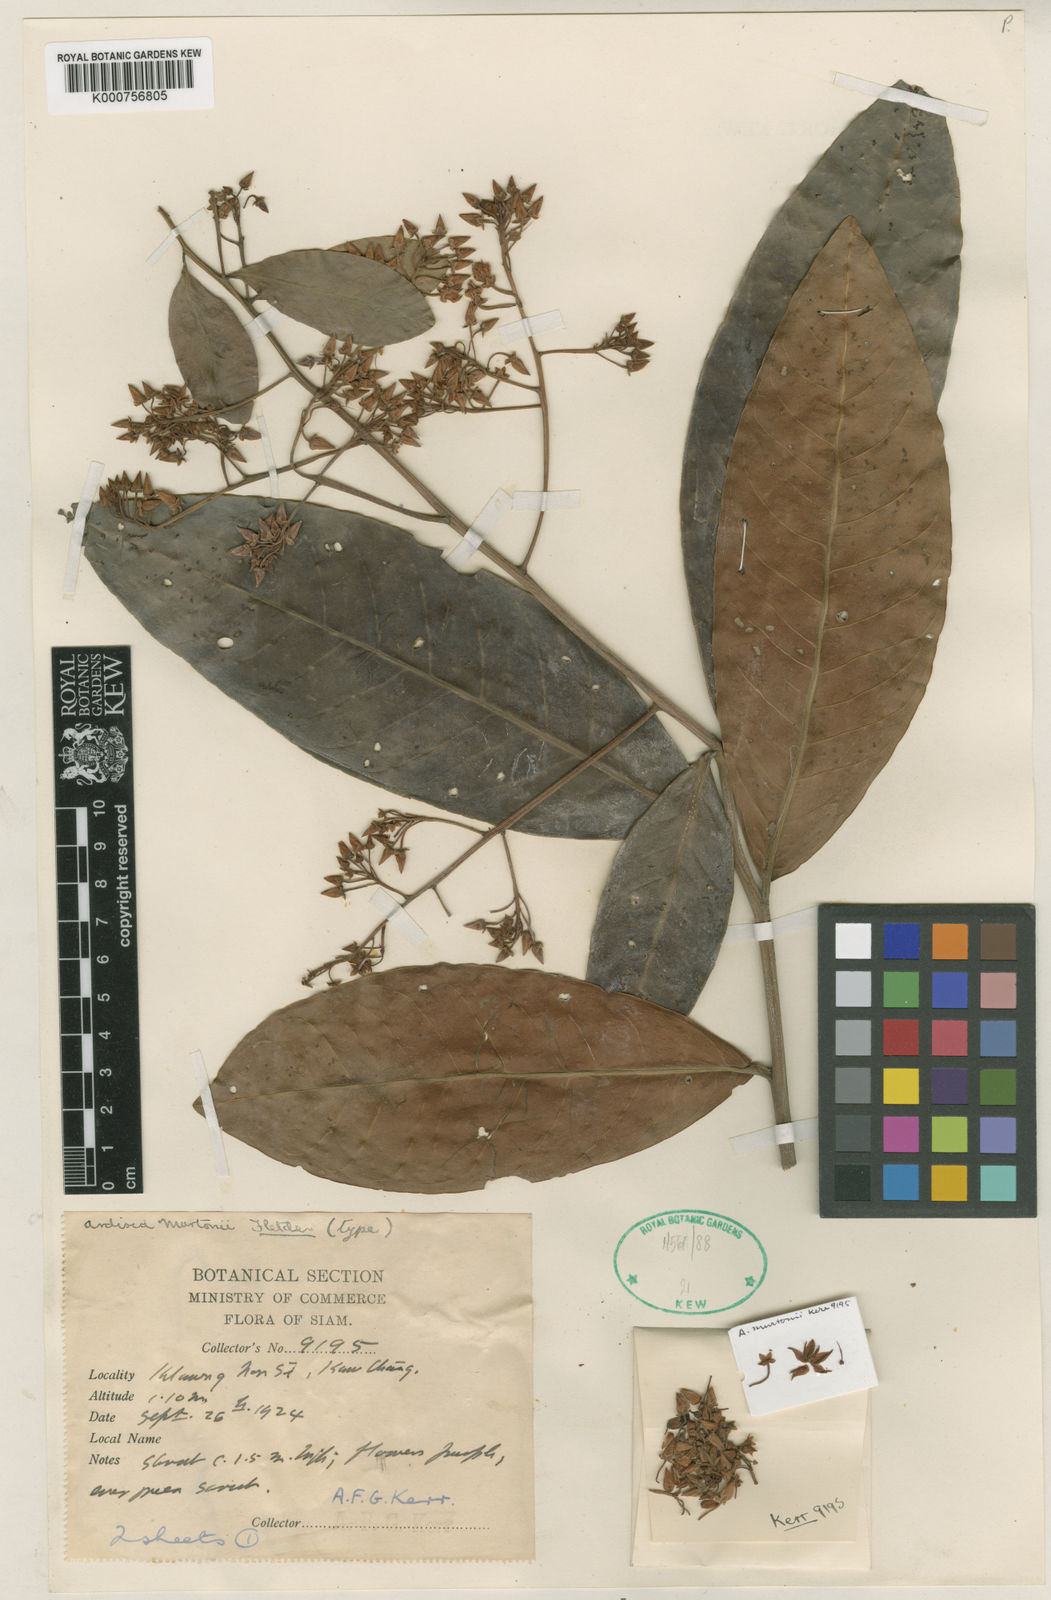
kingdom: Plantae
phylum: Tracheophyta
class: Magnoliopsida
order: Ericales
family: Primulaceae
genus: Ardisia
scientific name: Ardisia murtonii
